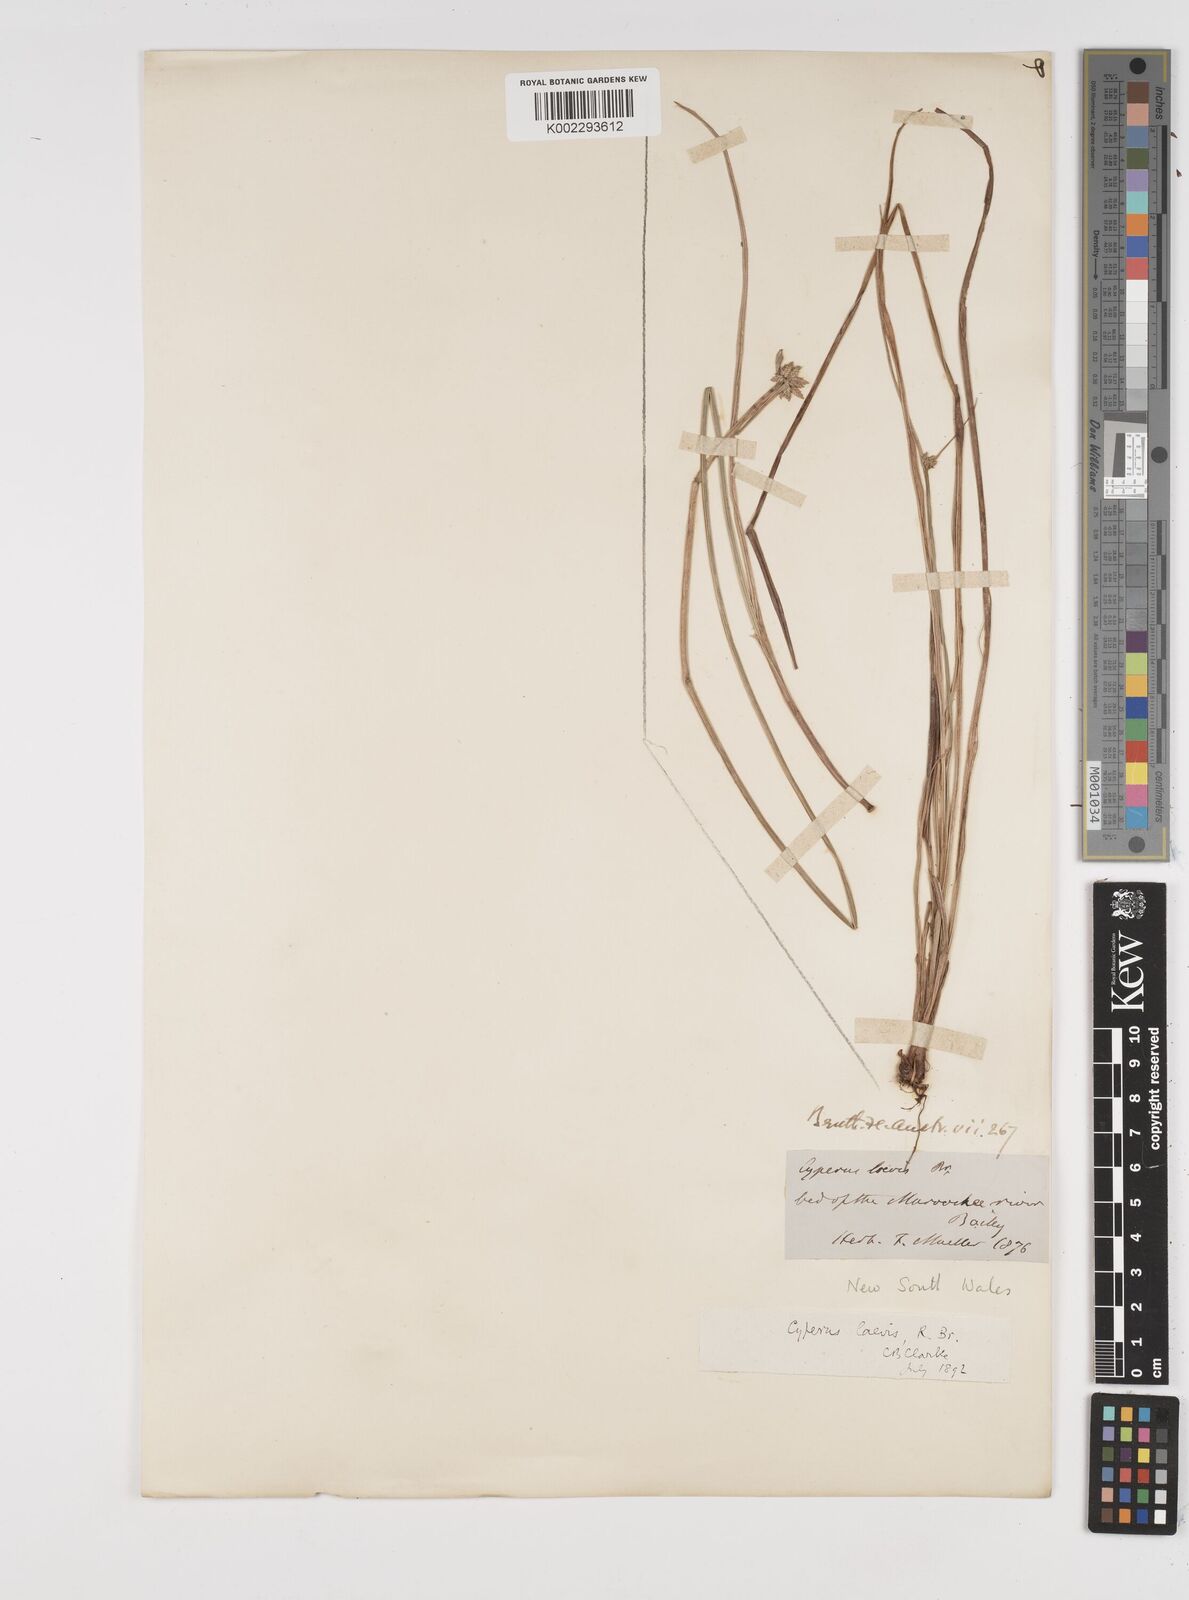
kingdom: Plantae
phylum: Tracheophyta
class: Liliopsida
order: Poales
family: Cyperaceae
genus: Cyperus
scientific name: Cyperus laevis
